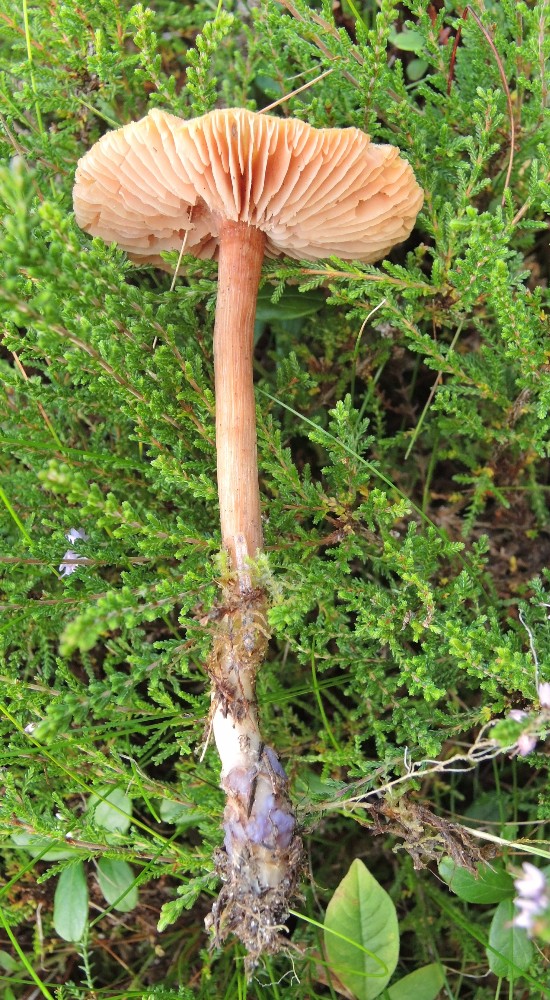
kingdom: Fungi
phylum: Basidiomycota
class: Agaricomycetes
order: Agaricales
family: Hydnangiaceae
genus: Laccaria
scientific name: Laccaria bicolor
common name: tvefarvet ametysthat
